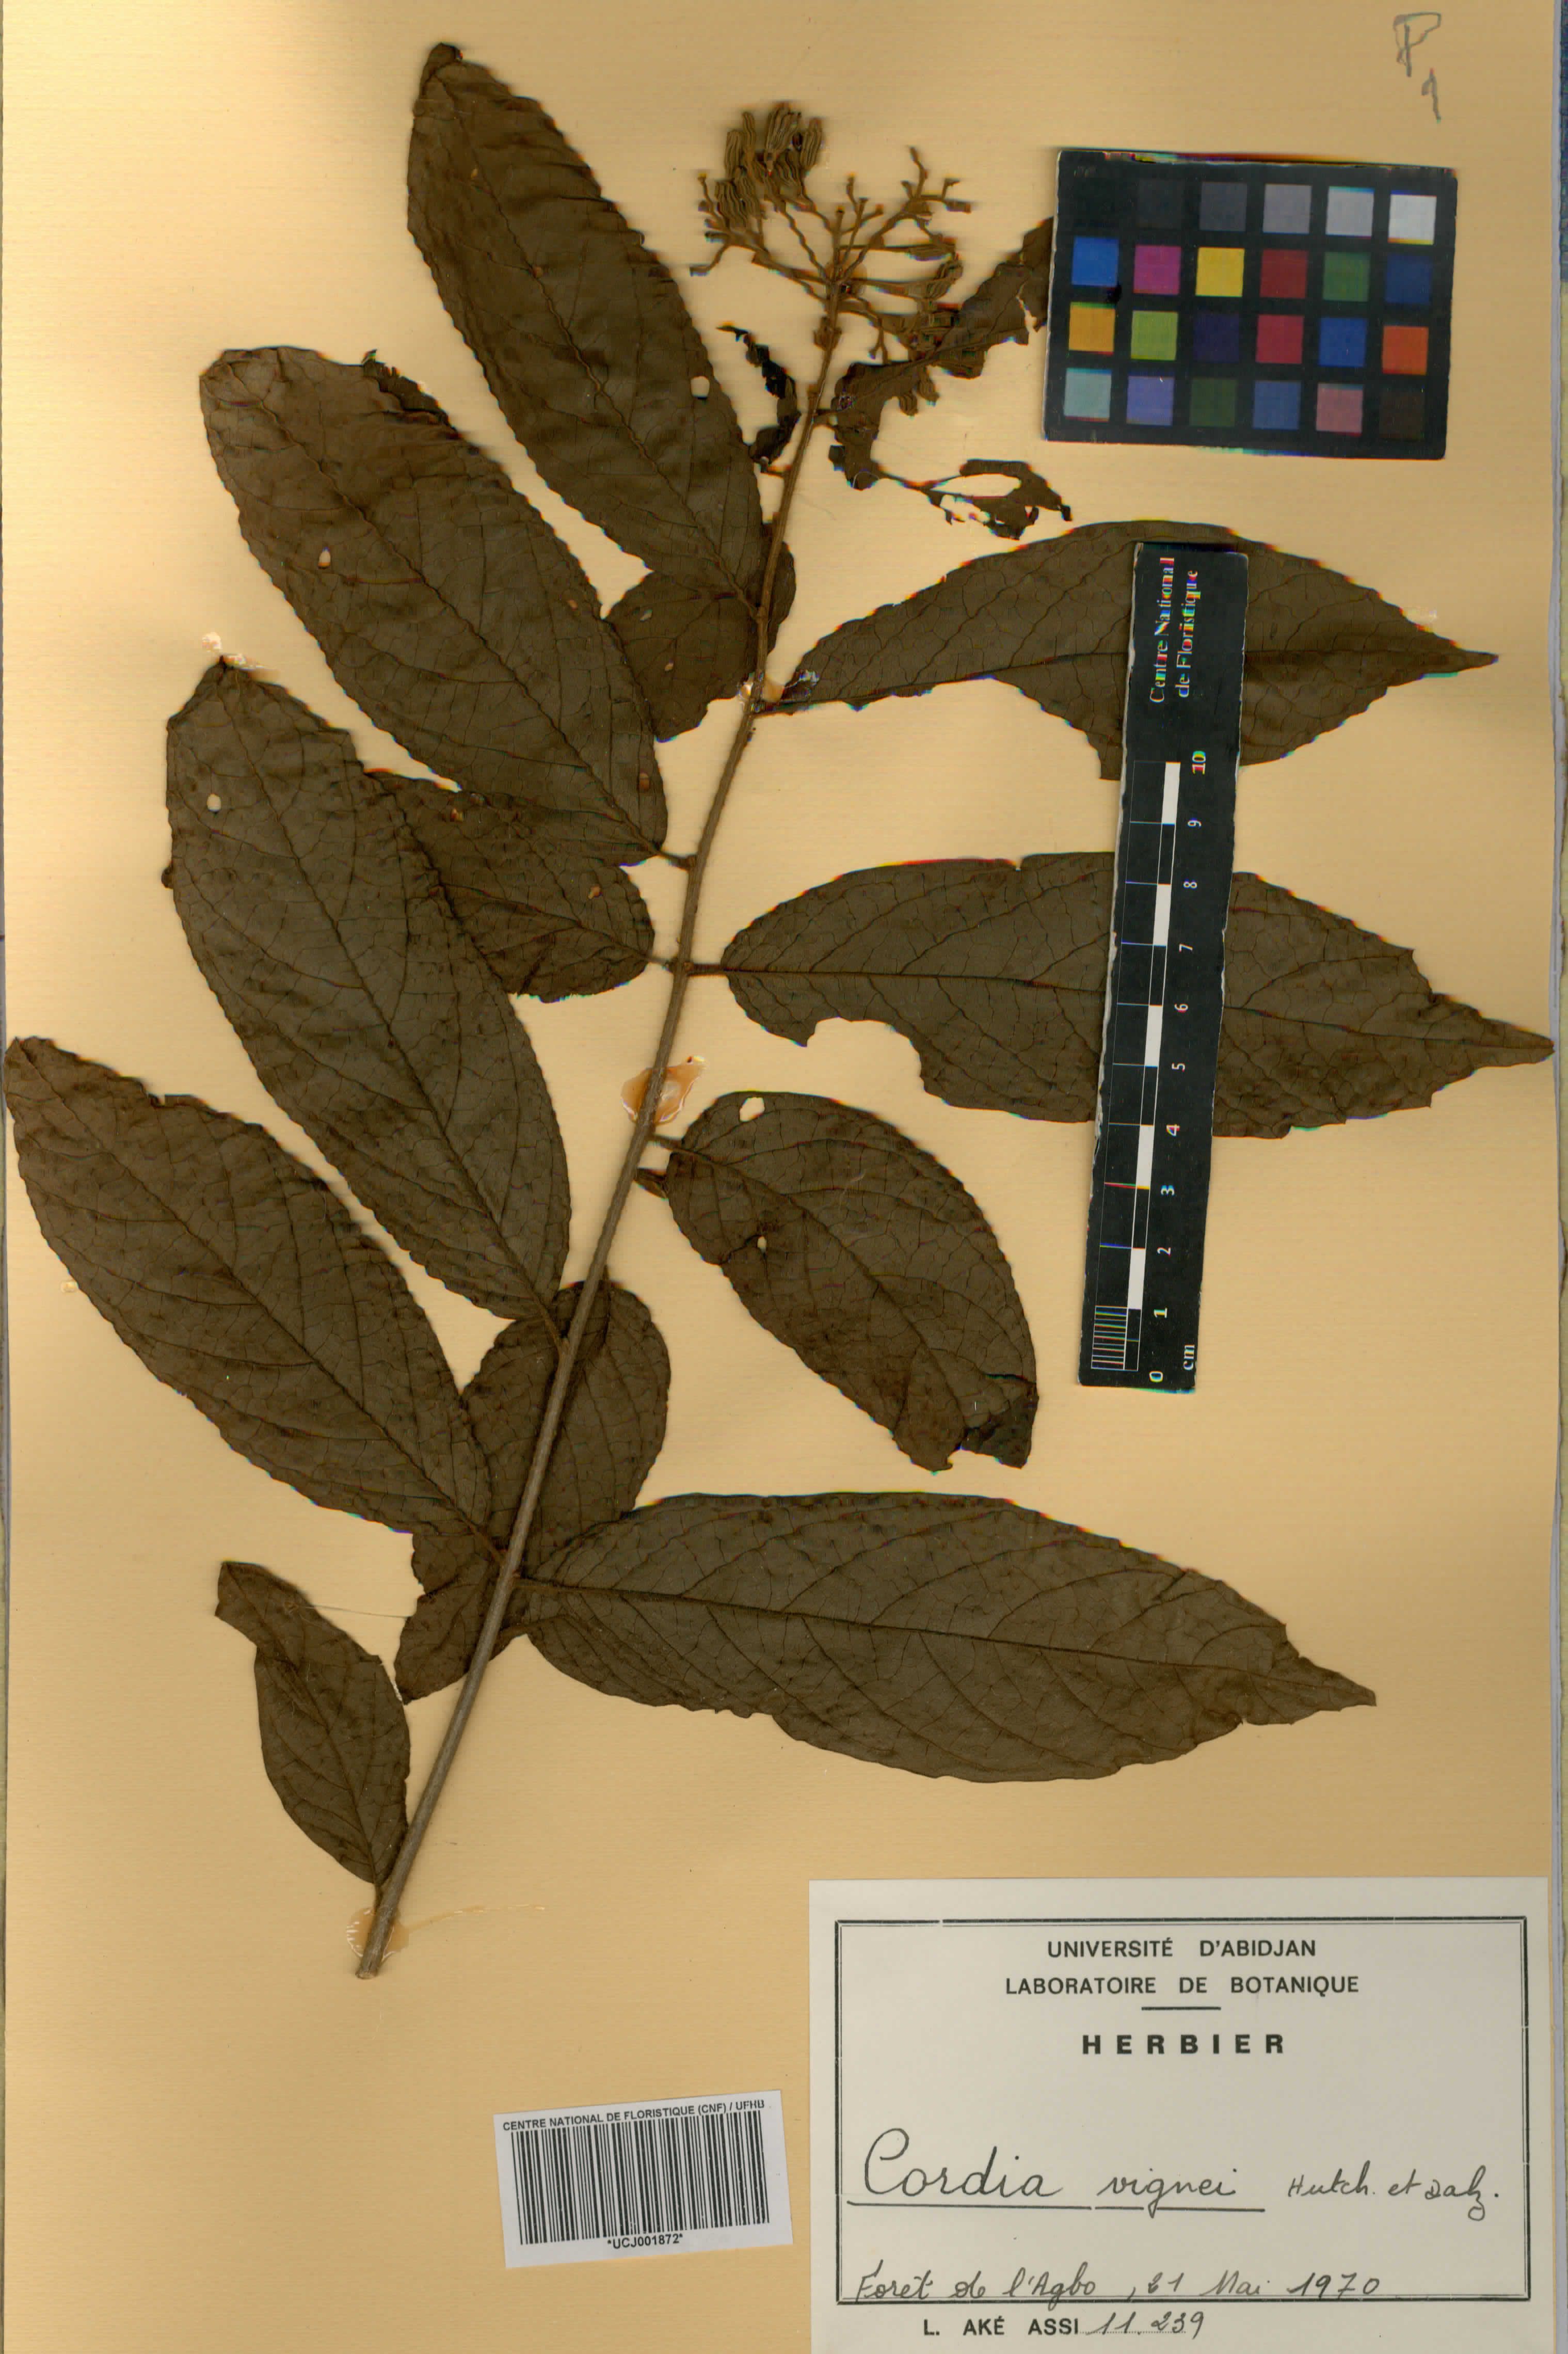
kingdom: Plantae
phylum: Tracheophyta
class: Magnoliopsida
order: Boraginales
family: Cordiaceae
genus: Cordia
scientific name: Cordia vignei
